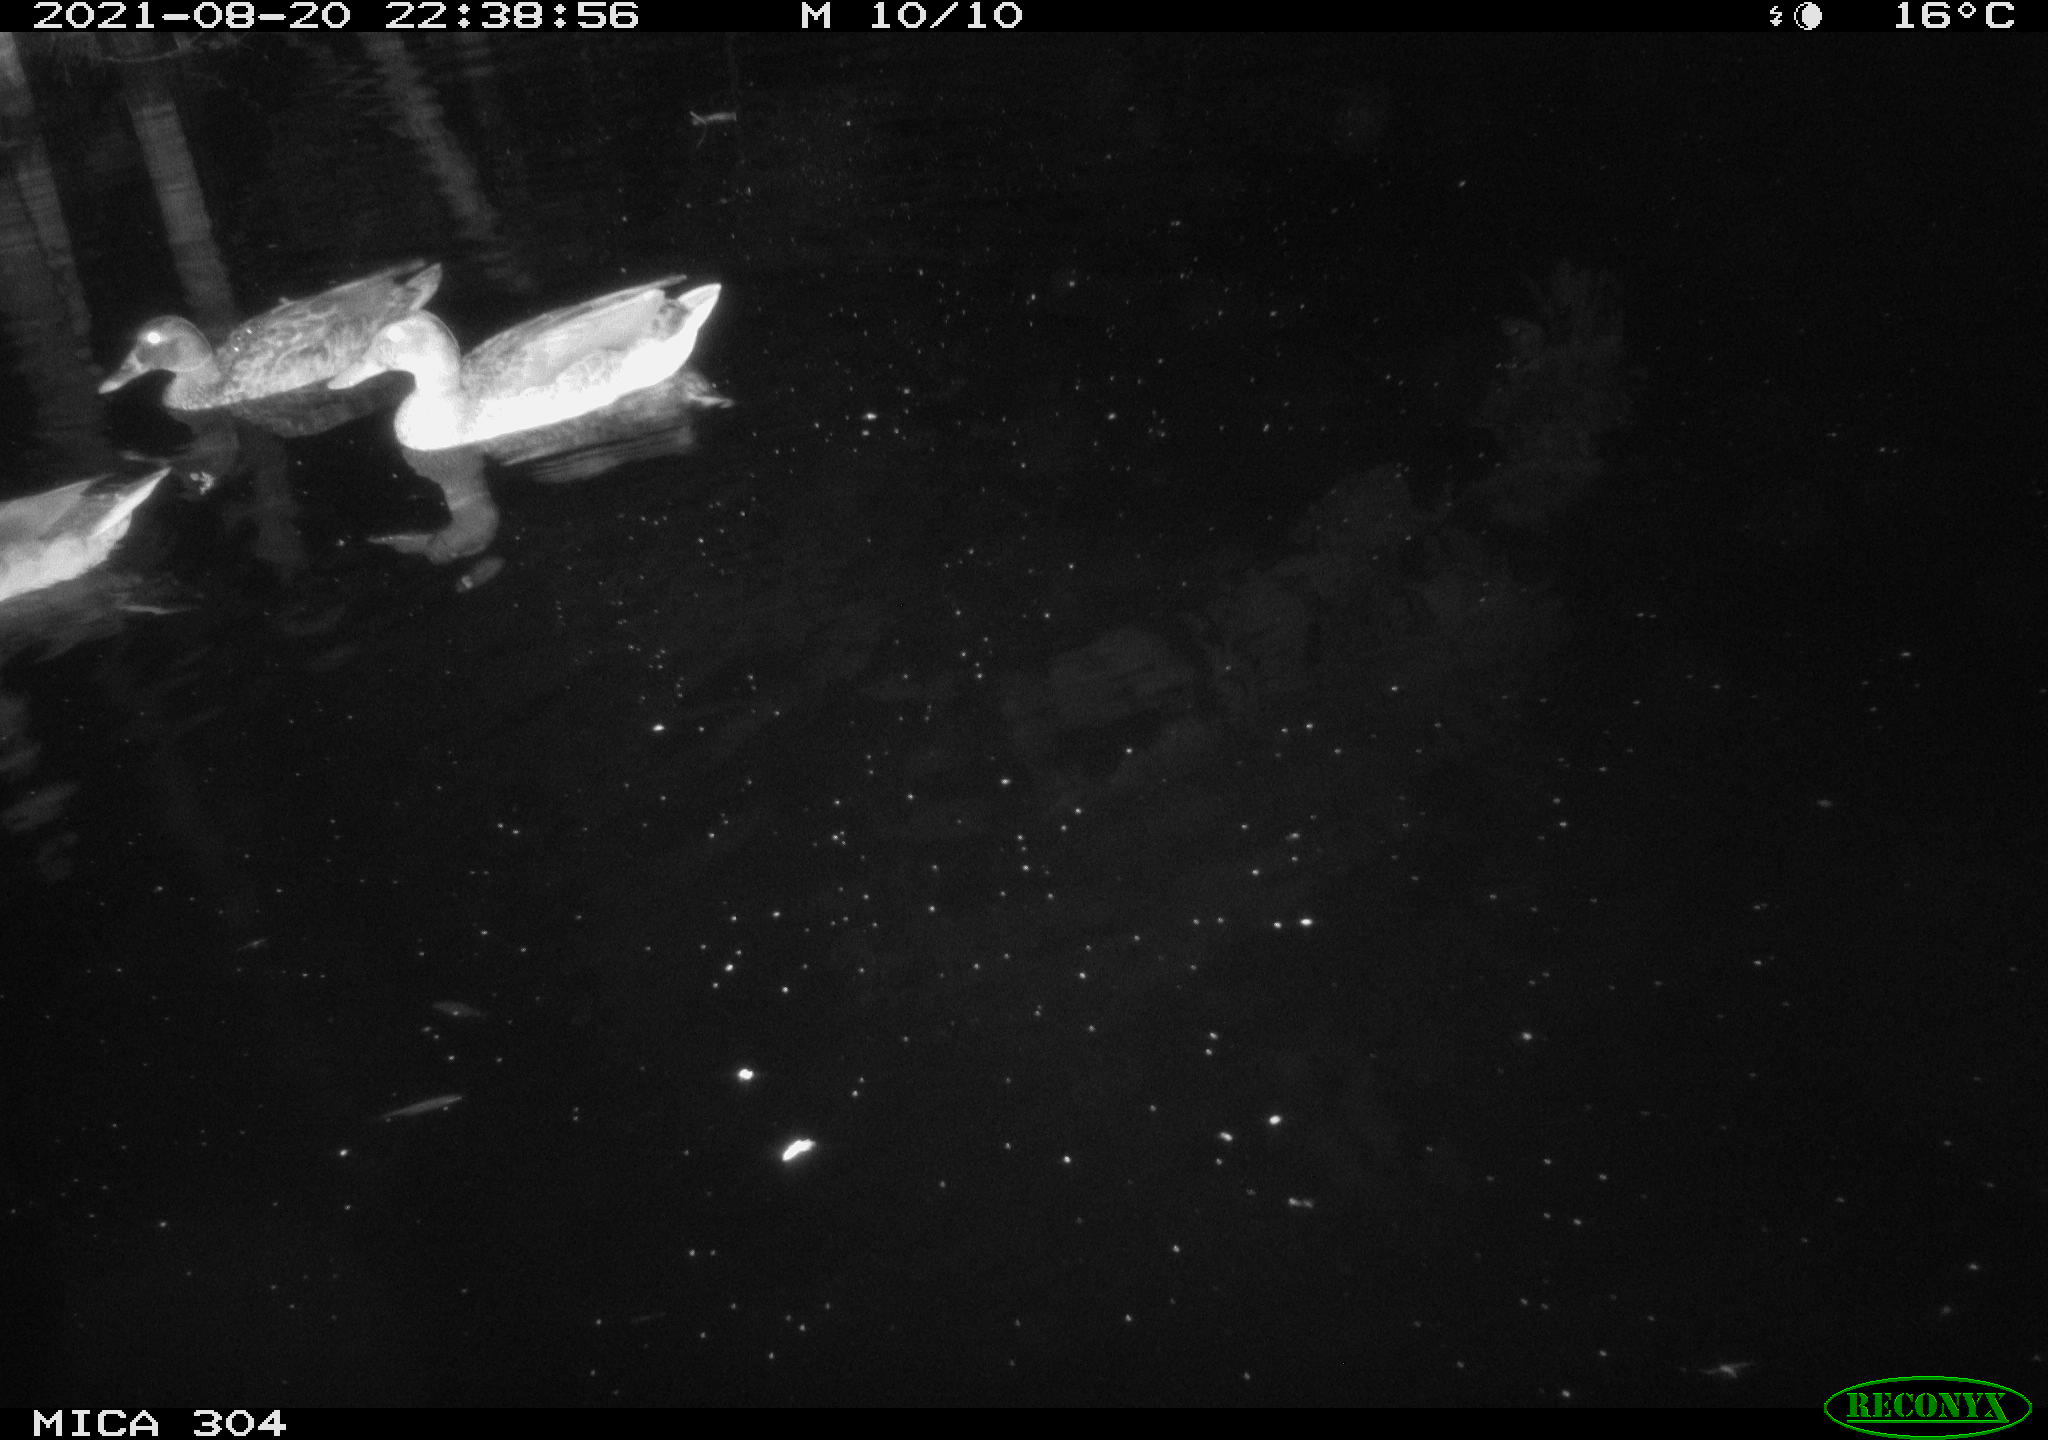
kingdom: Animalia
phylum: Chordata
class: Aves
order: Anseriformes
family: Anatidae
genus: Anas
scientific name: Anas platyrhynchos
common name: Mallard
